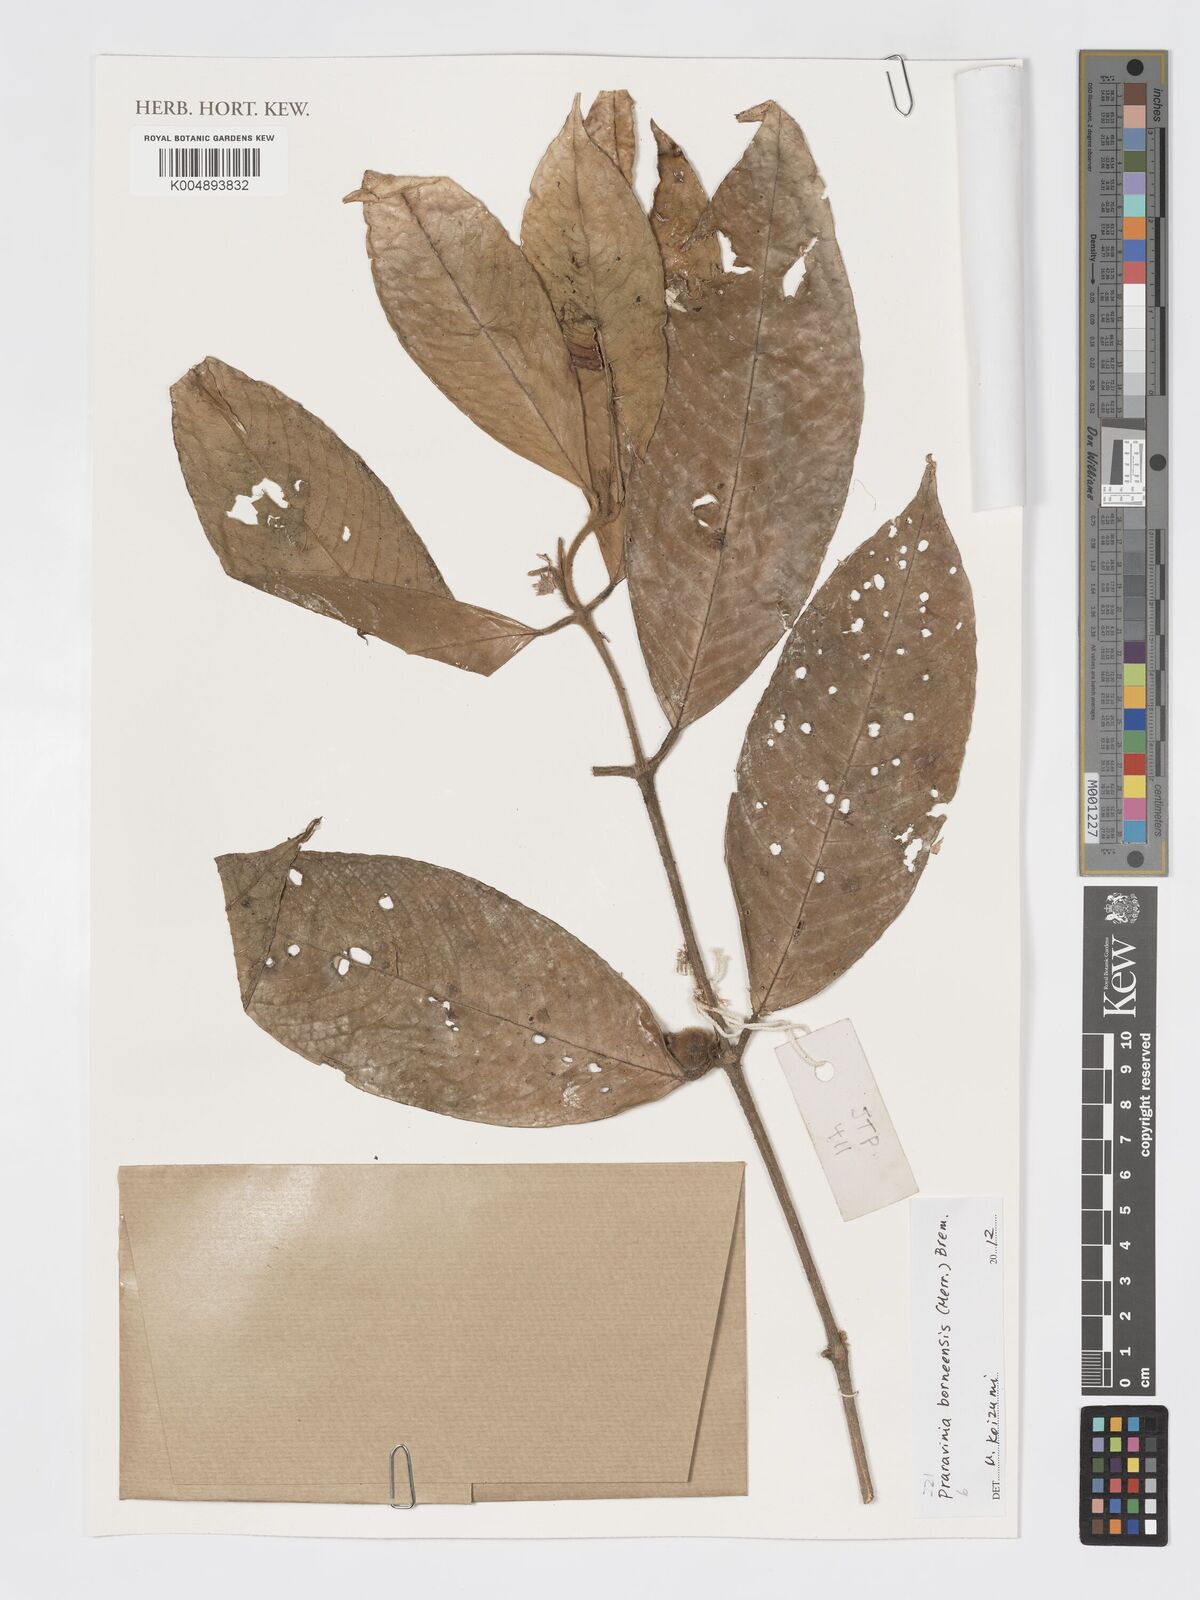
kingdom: Plantae
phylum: Tracheophyta
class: Magnoliopsida
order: Gentianales
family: Rubiaceae
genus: Praravinia
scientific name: Praravinia borneensis
